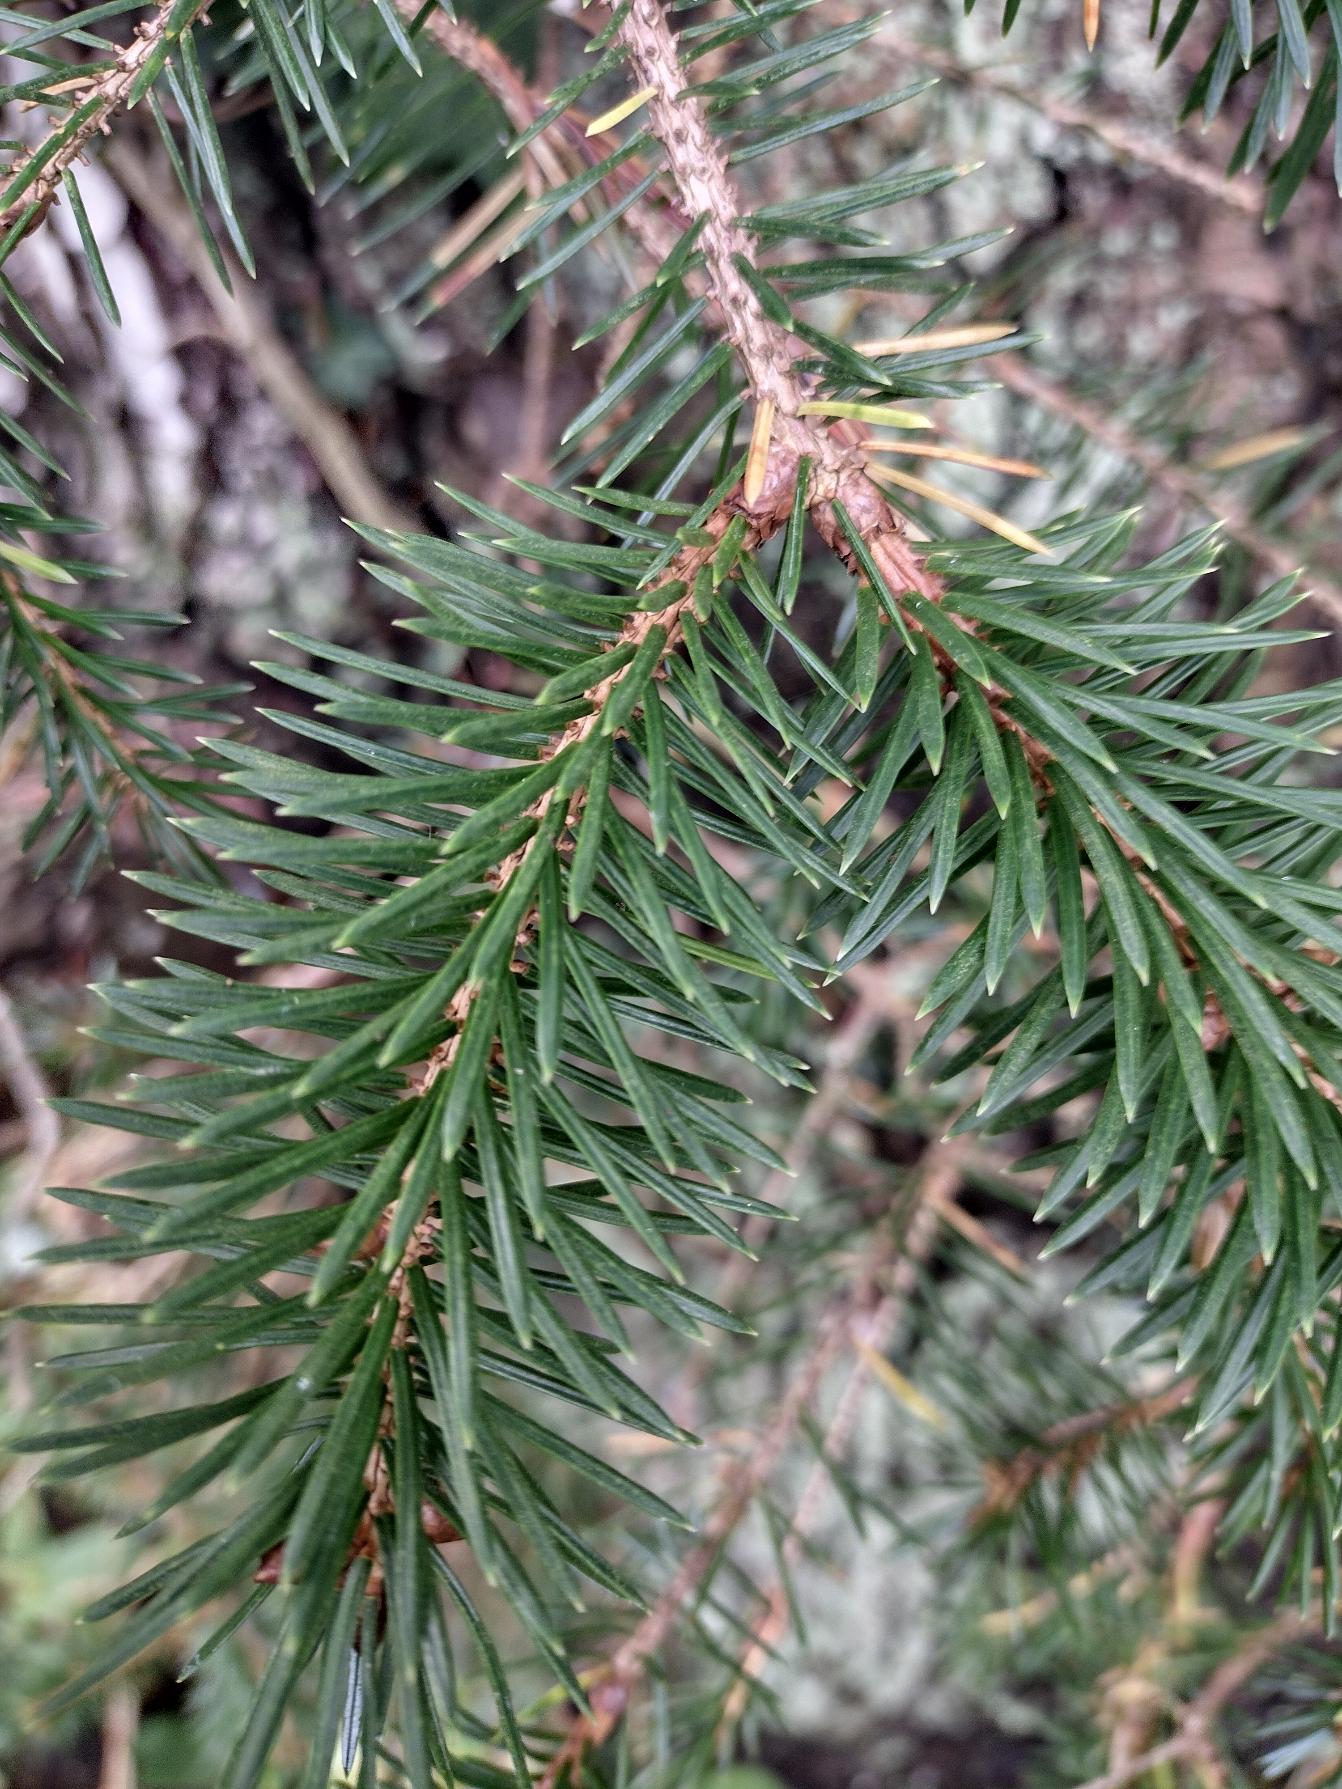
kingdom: Plantae
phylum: Tracheophyta
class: Pinopsida
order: Pinales
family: Pinaceae
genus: Picea
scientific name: Picea sitchensis
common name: Sitka-gran
